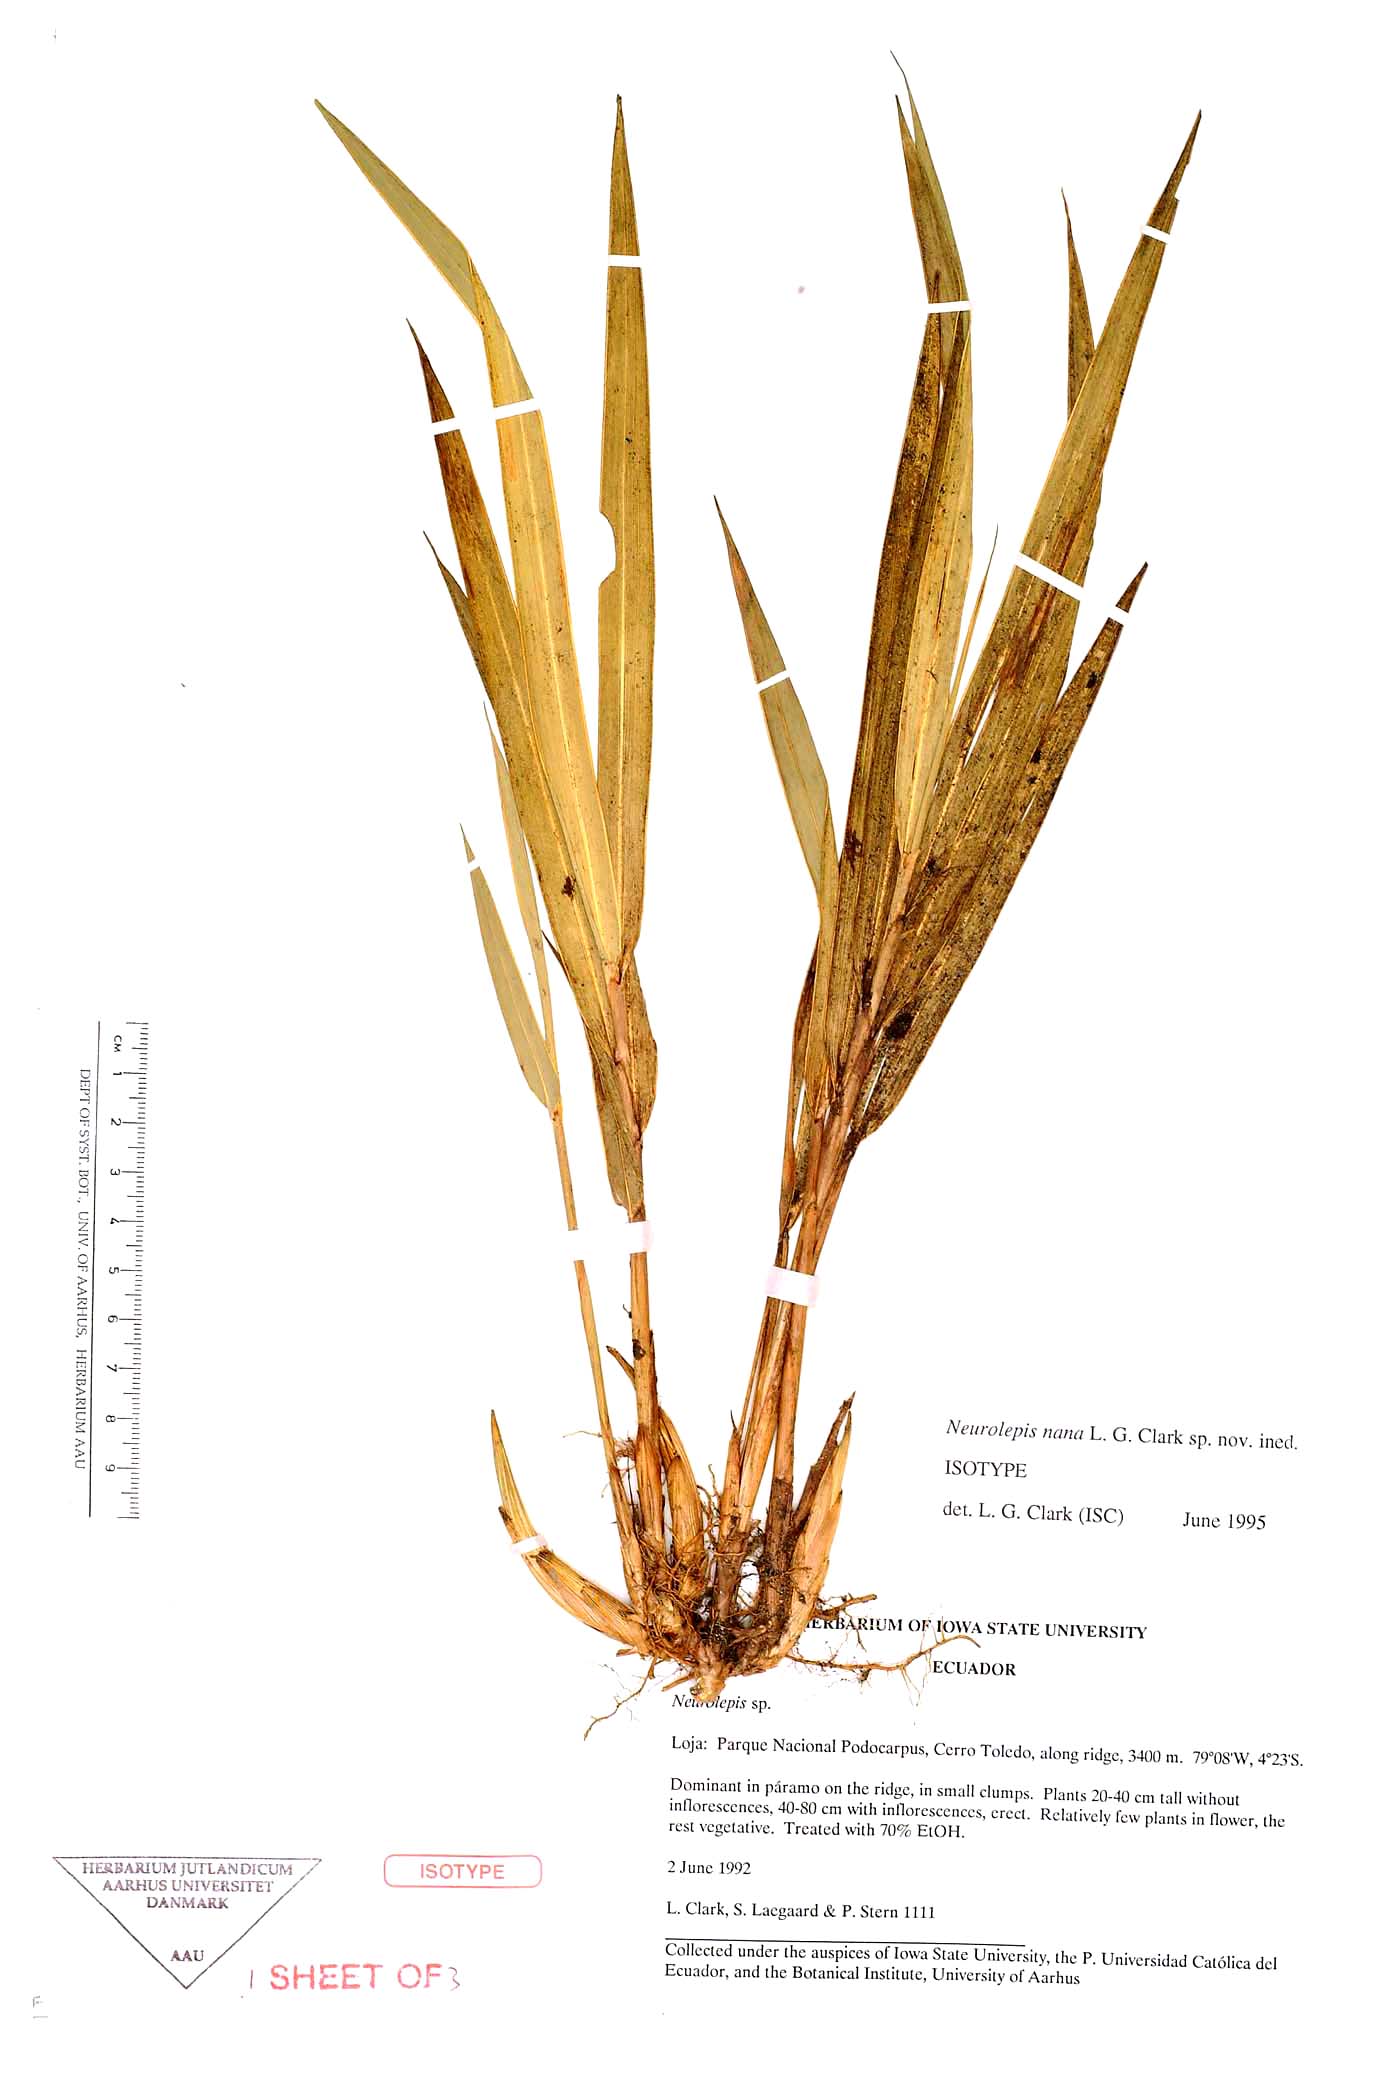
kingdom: Plantae
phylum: Tracheophyta
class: Liliopsida
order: Poales
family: Poaceae
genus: Chusquea
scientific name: Chusquea nana
